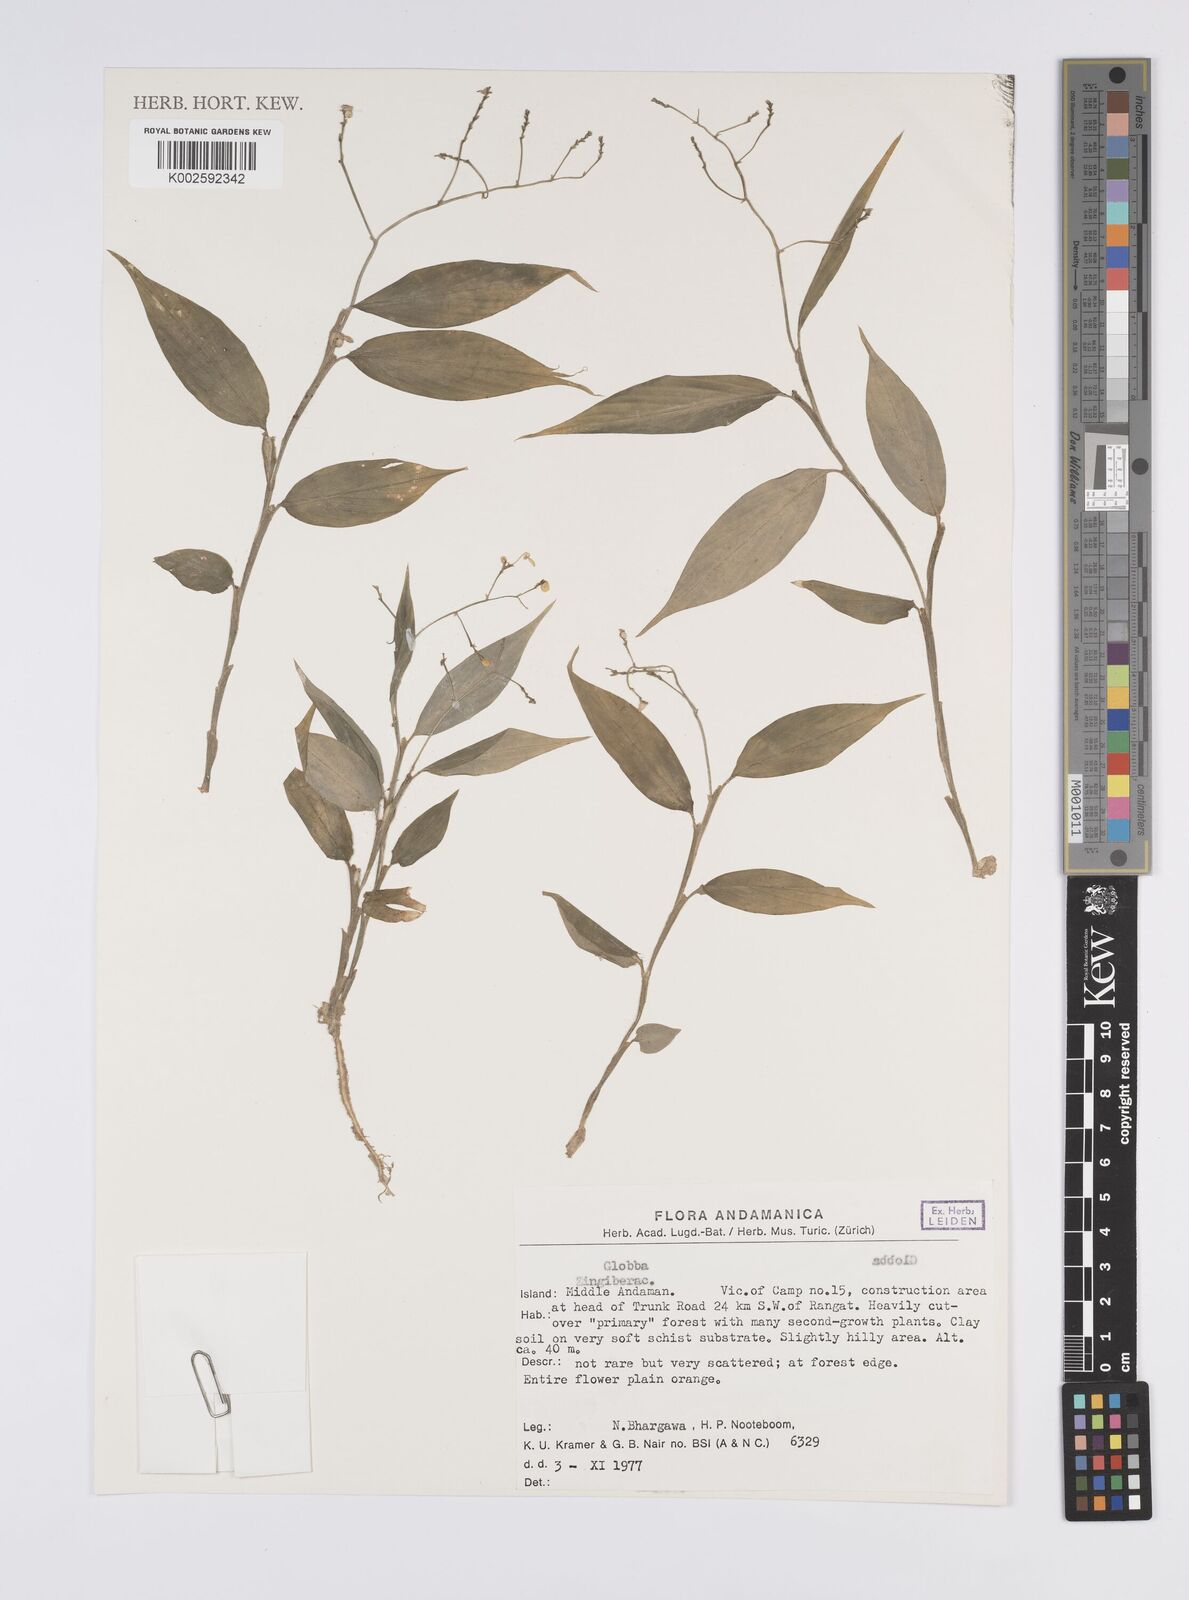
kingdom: Plantae
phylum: Tracheophyta
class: Liliopsida
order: Zingiberales
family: Zingiberaceae
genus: Globba
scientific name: Globba
